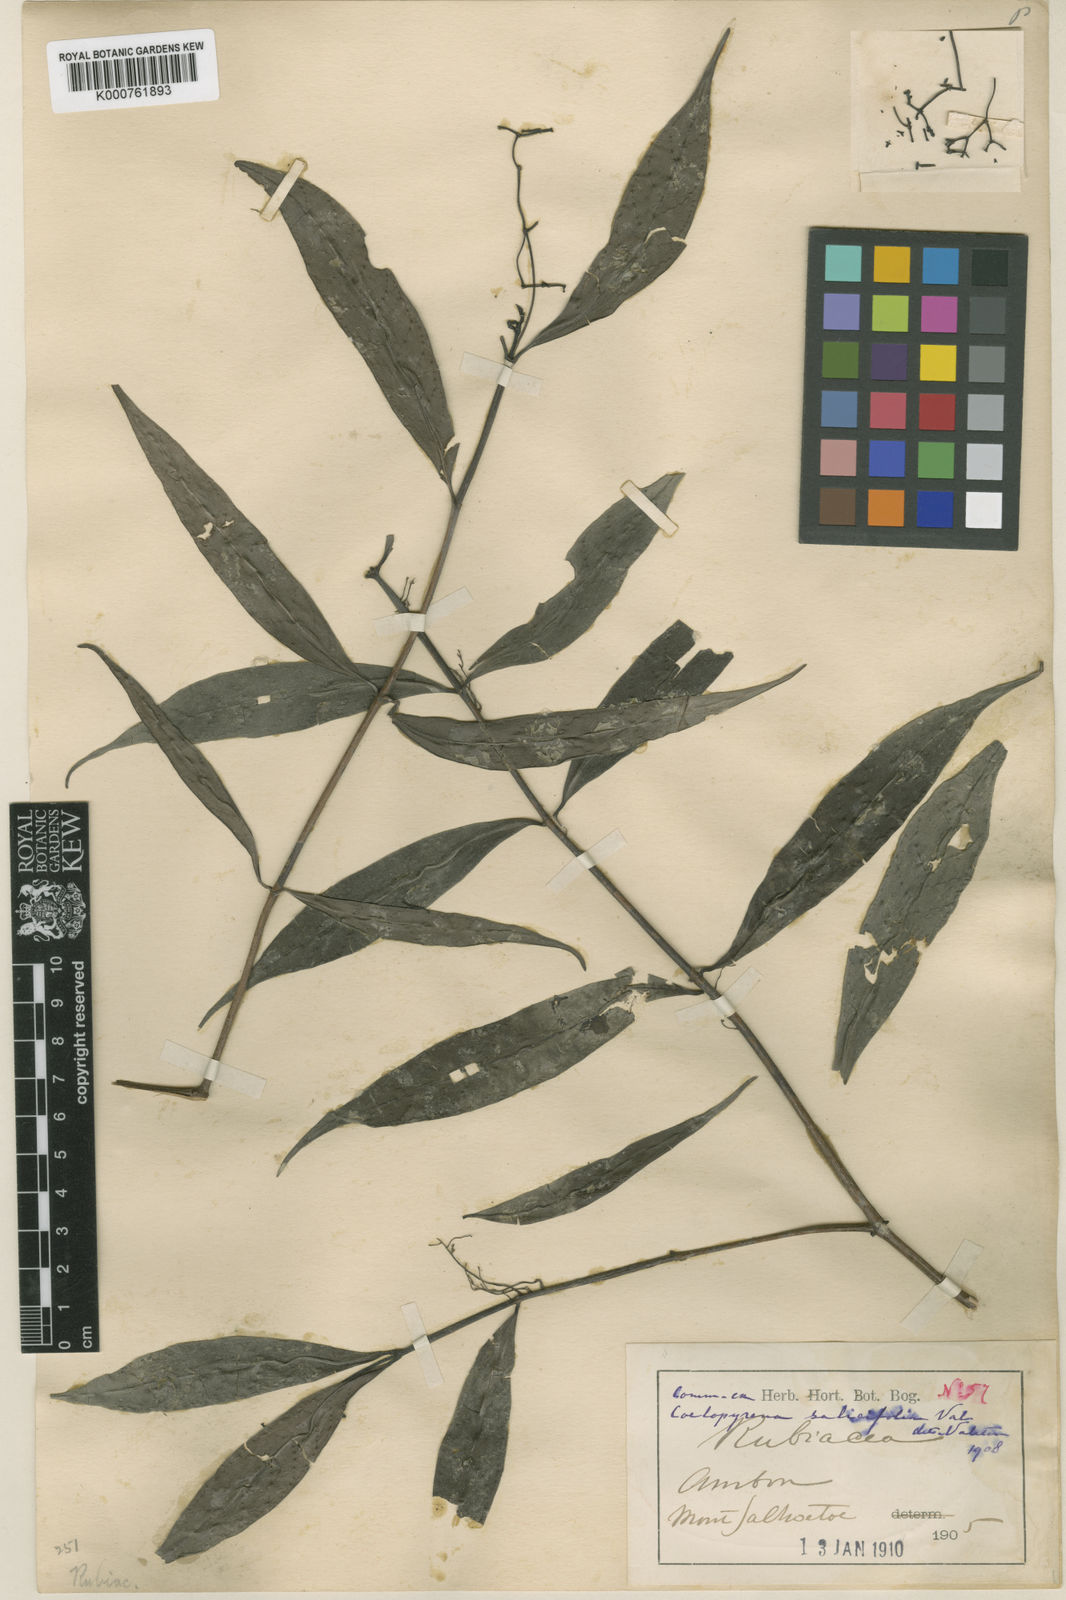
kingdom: Plantae
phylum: Tracheophyta
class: Magnoliopsida
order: Gentianales
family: Rubiaceae
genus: Coelopyrena
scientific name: Coelopyrena salicifolia
